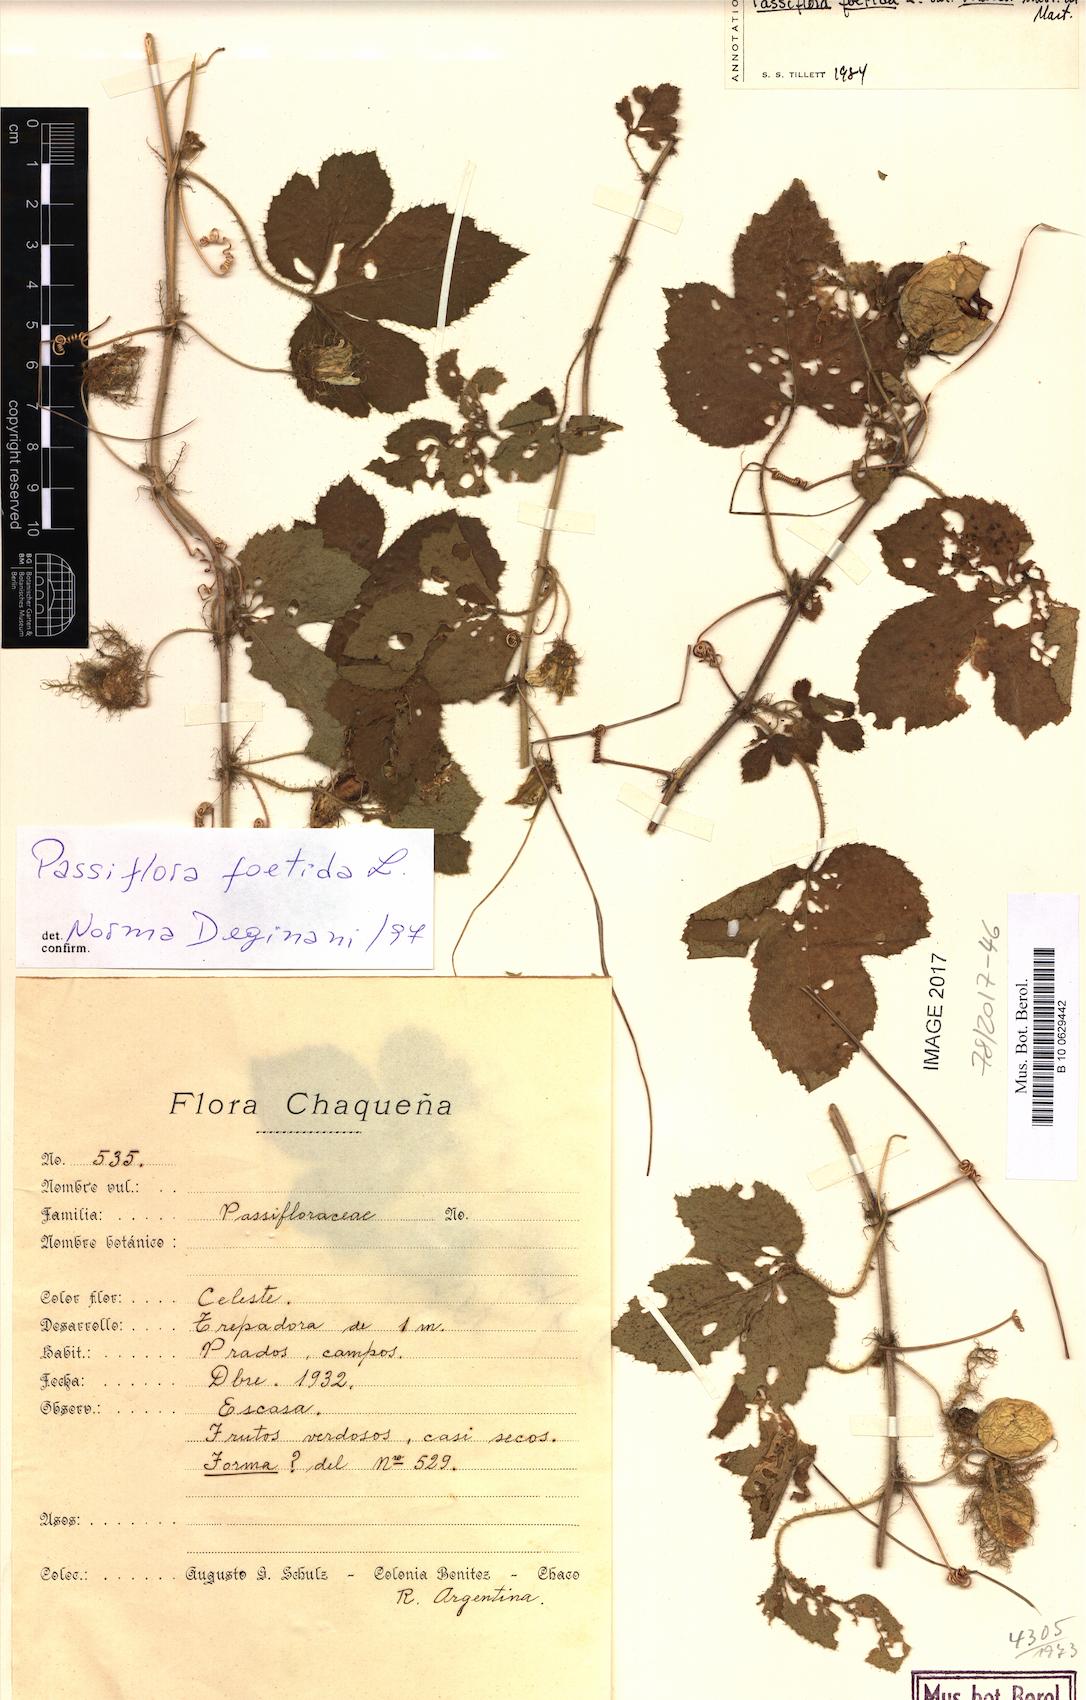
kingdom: Plantae
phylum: Tracheophyta
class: Magnoliopsida
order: Malpighiales
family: Passifloraceae
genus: Passiflora
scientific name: Passiflora foetida
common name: Fetid passionflower
